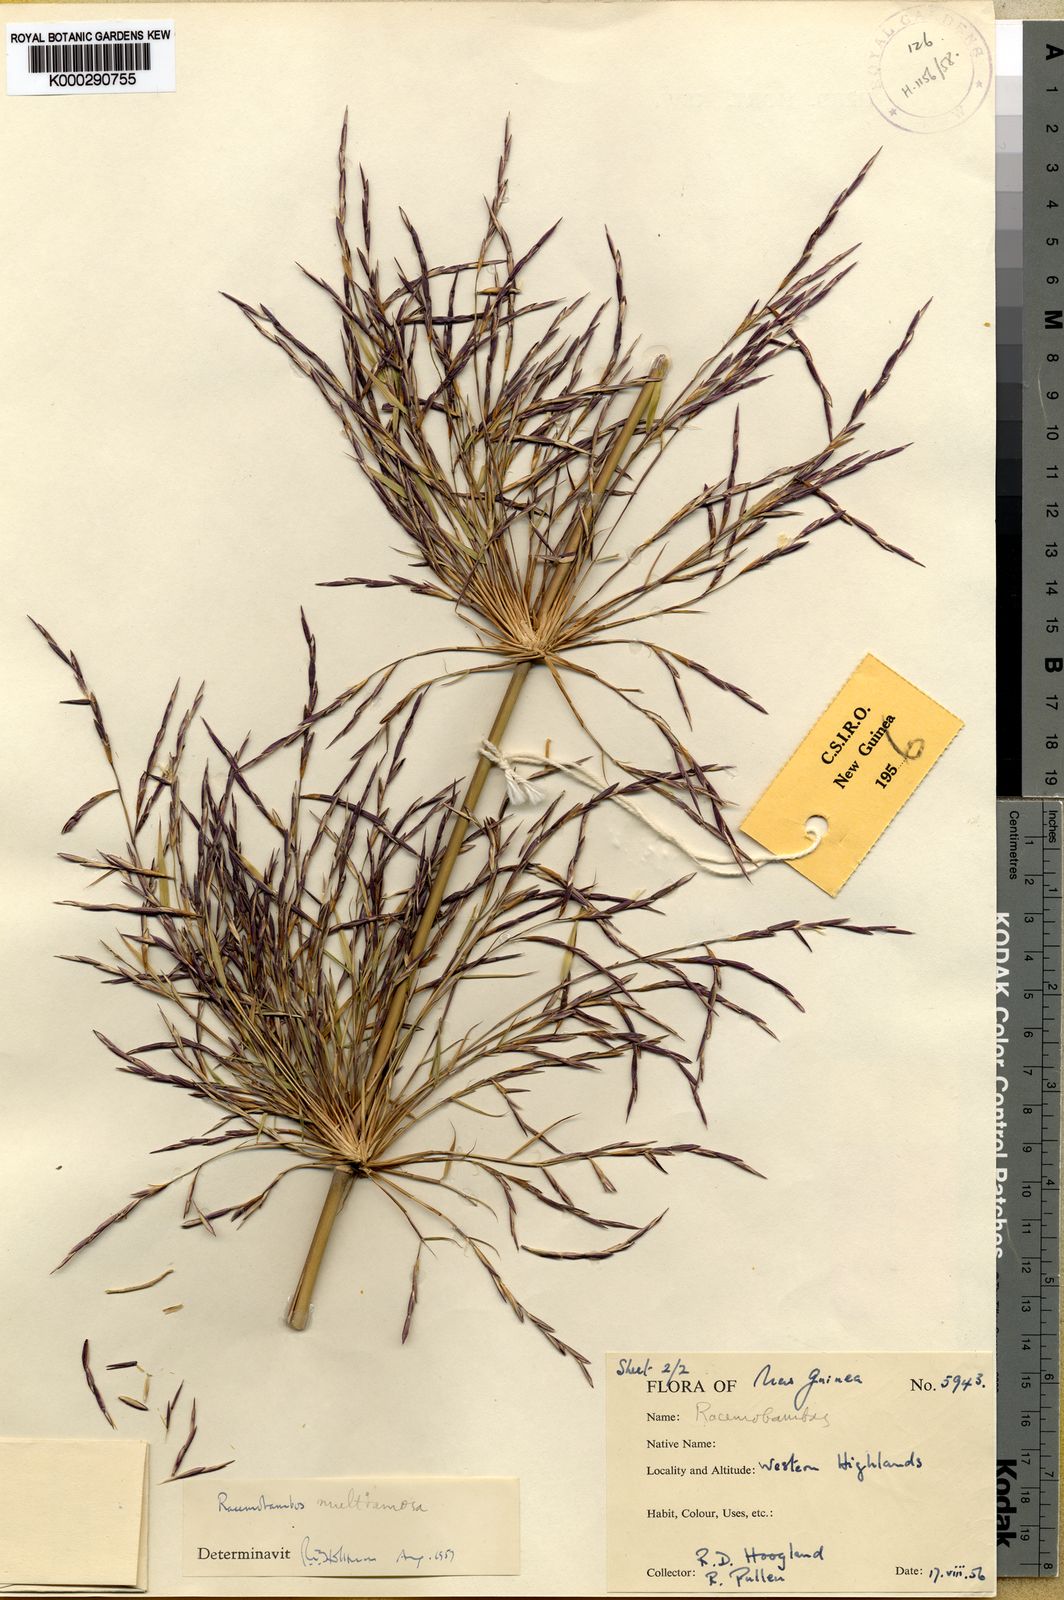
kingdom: Plantae
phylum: Tracheophyta
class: Liliopsida
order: Poales
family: Poaceae
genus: Racemobambos
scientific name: Racemobambos multiramosa
